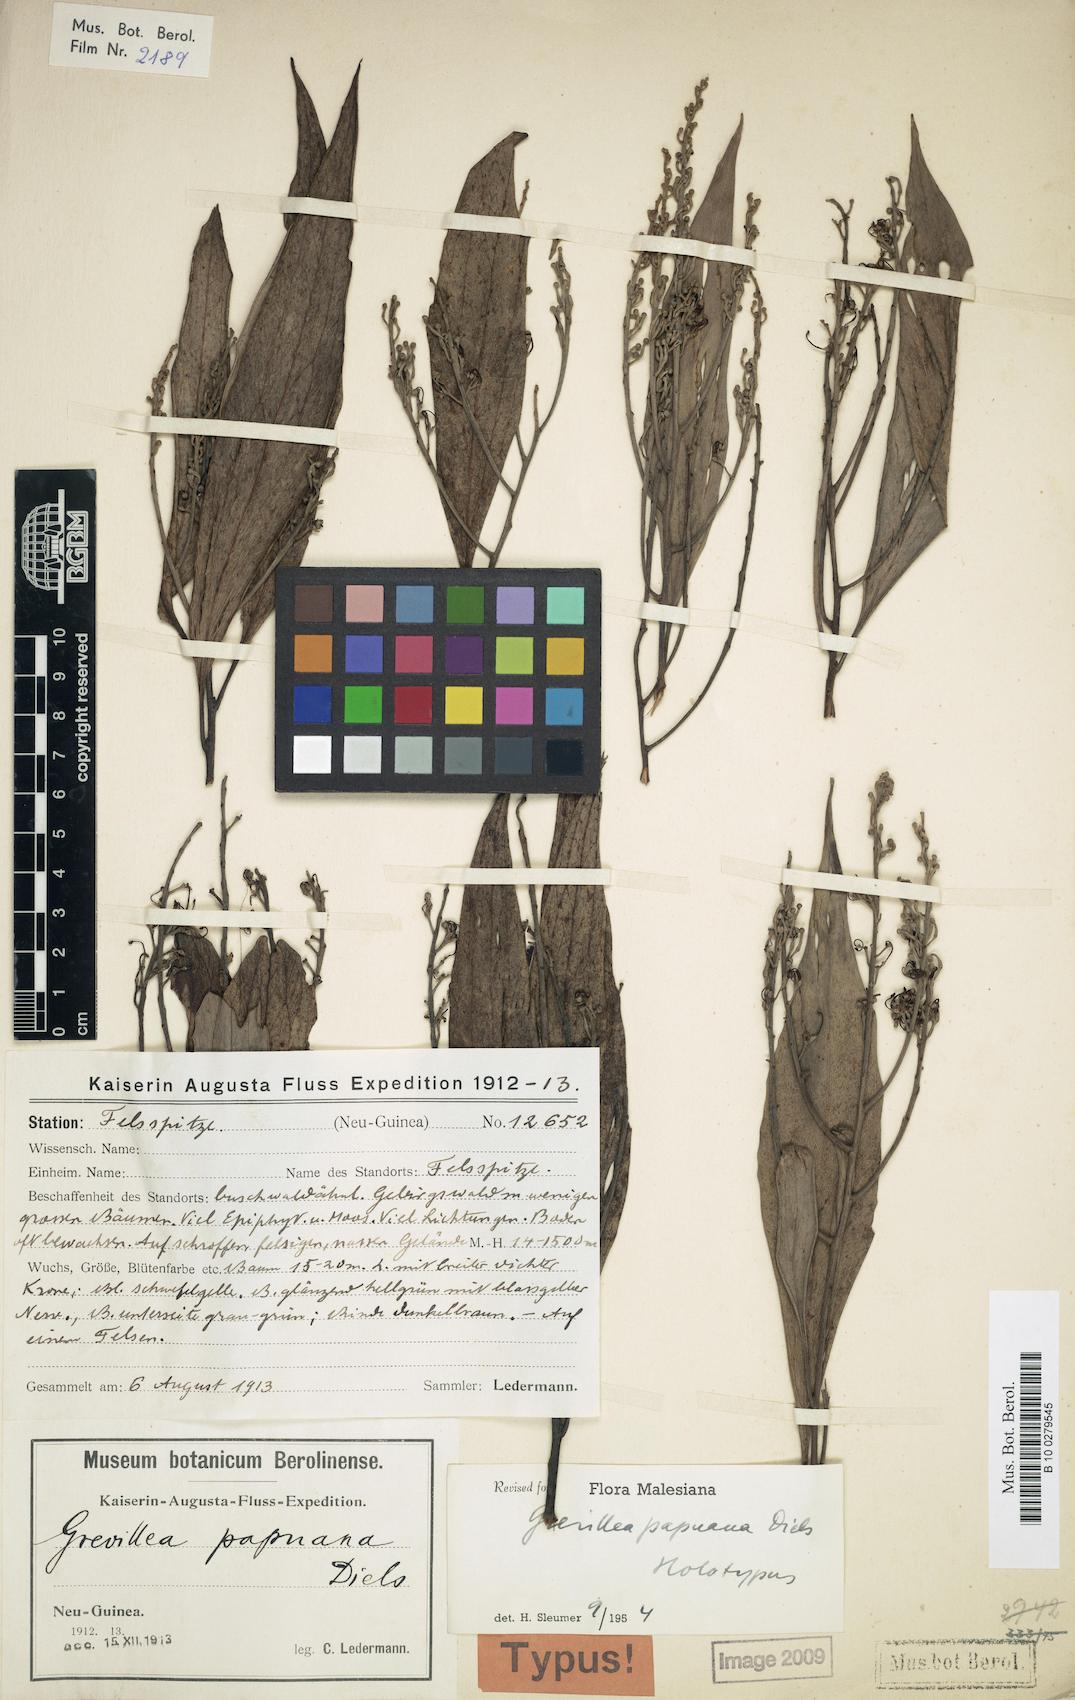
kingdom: Plantae
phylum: Tracheophyta
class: Magnoliopsida
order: Proteales
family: Proteaceae
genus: Grevillea
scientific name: Grevillea papuana
